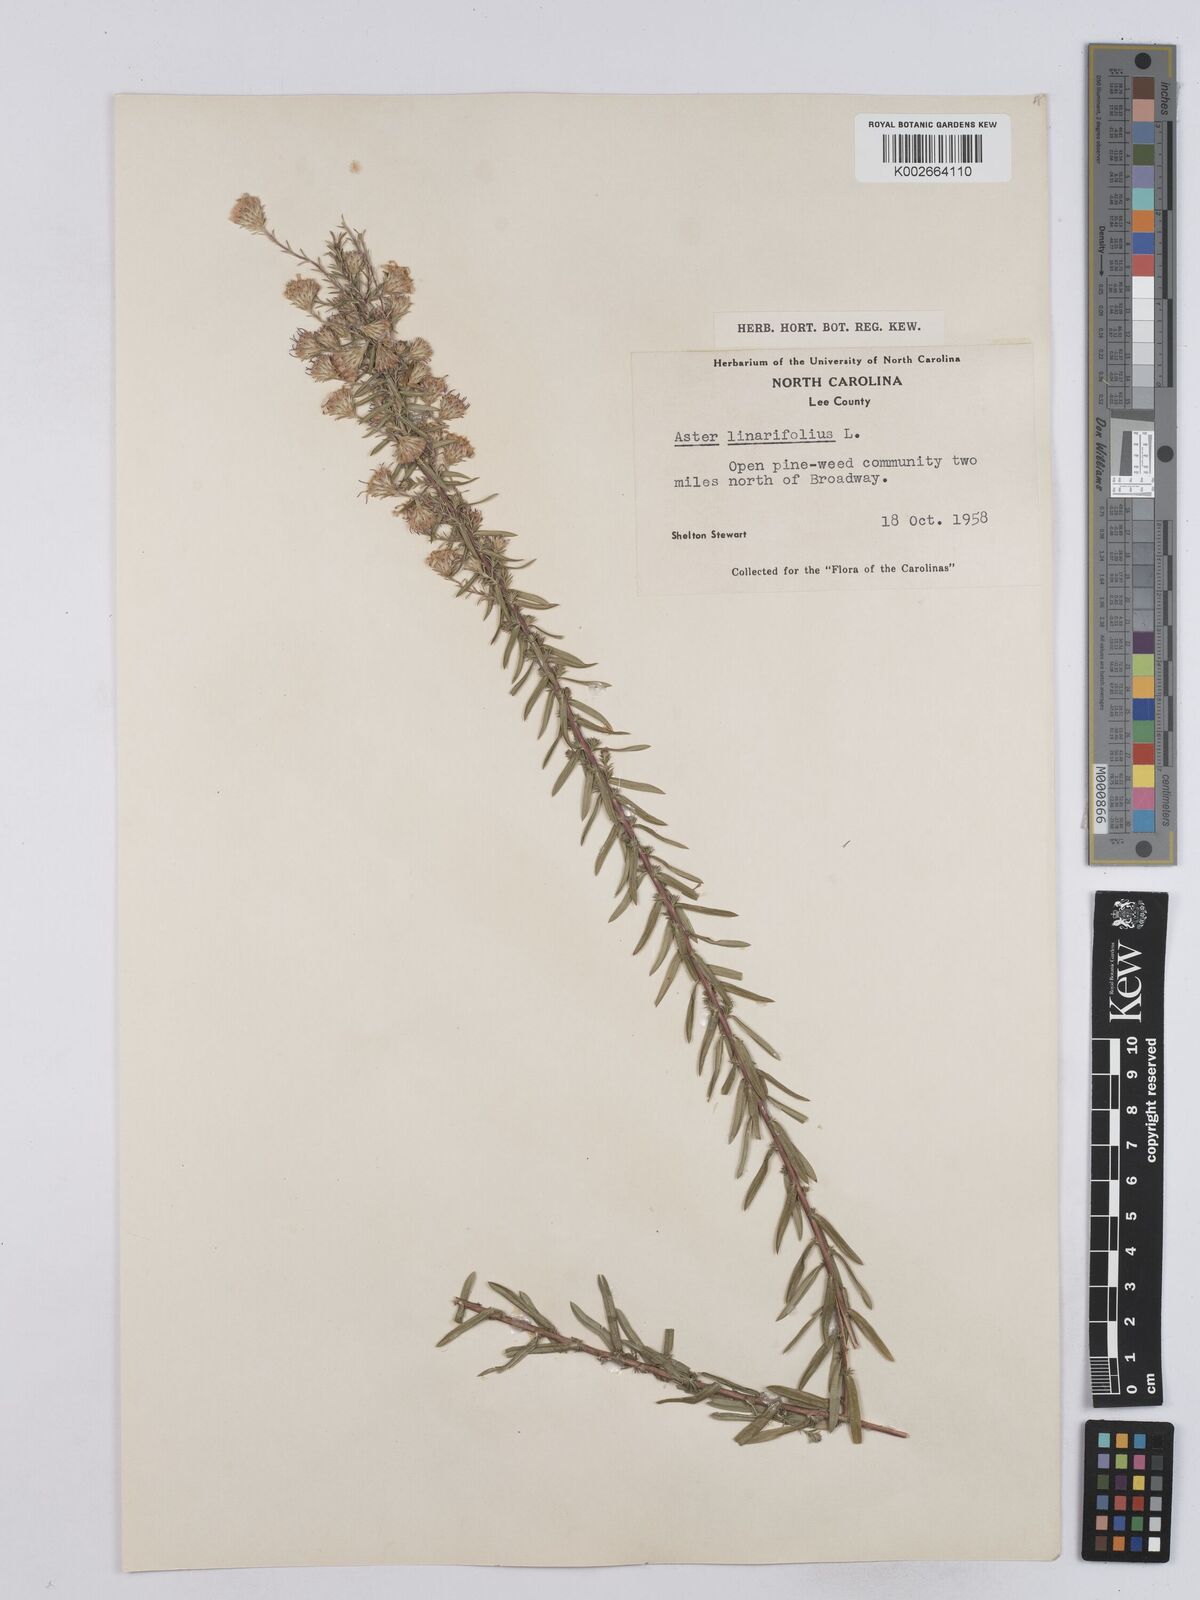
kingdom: Plantae
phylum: Tracheophyta
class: Magnoliopsida
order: Asterales
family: Asteraceae
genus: Ionactis
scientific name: Ionactis linariifolia
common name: Flax-leaf aster
